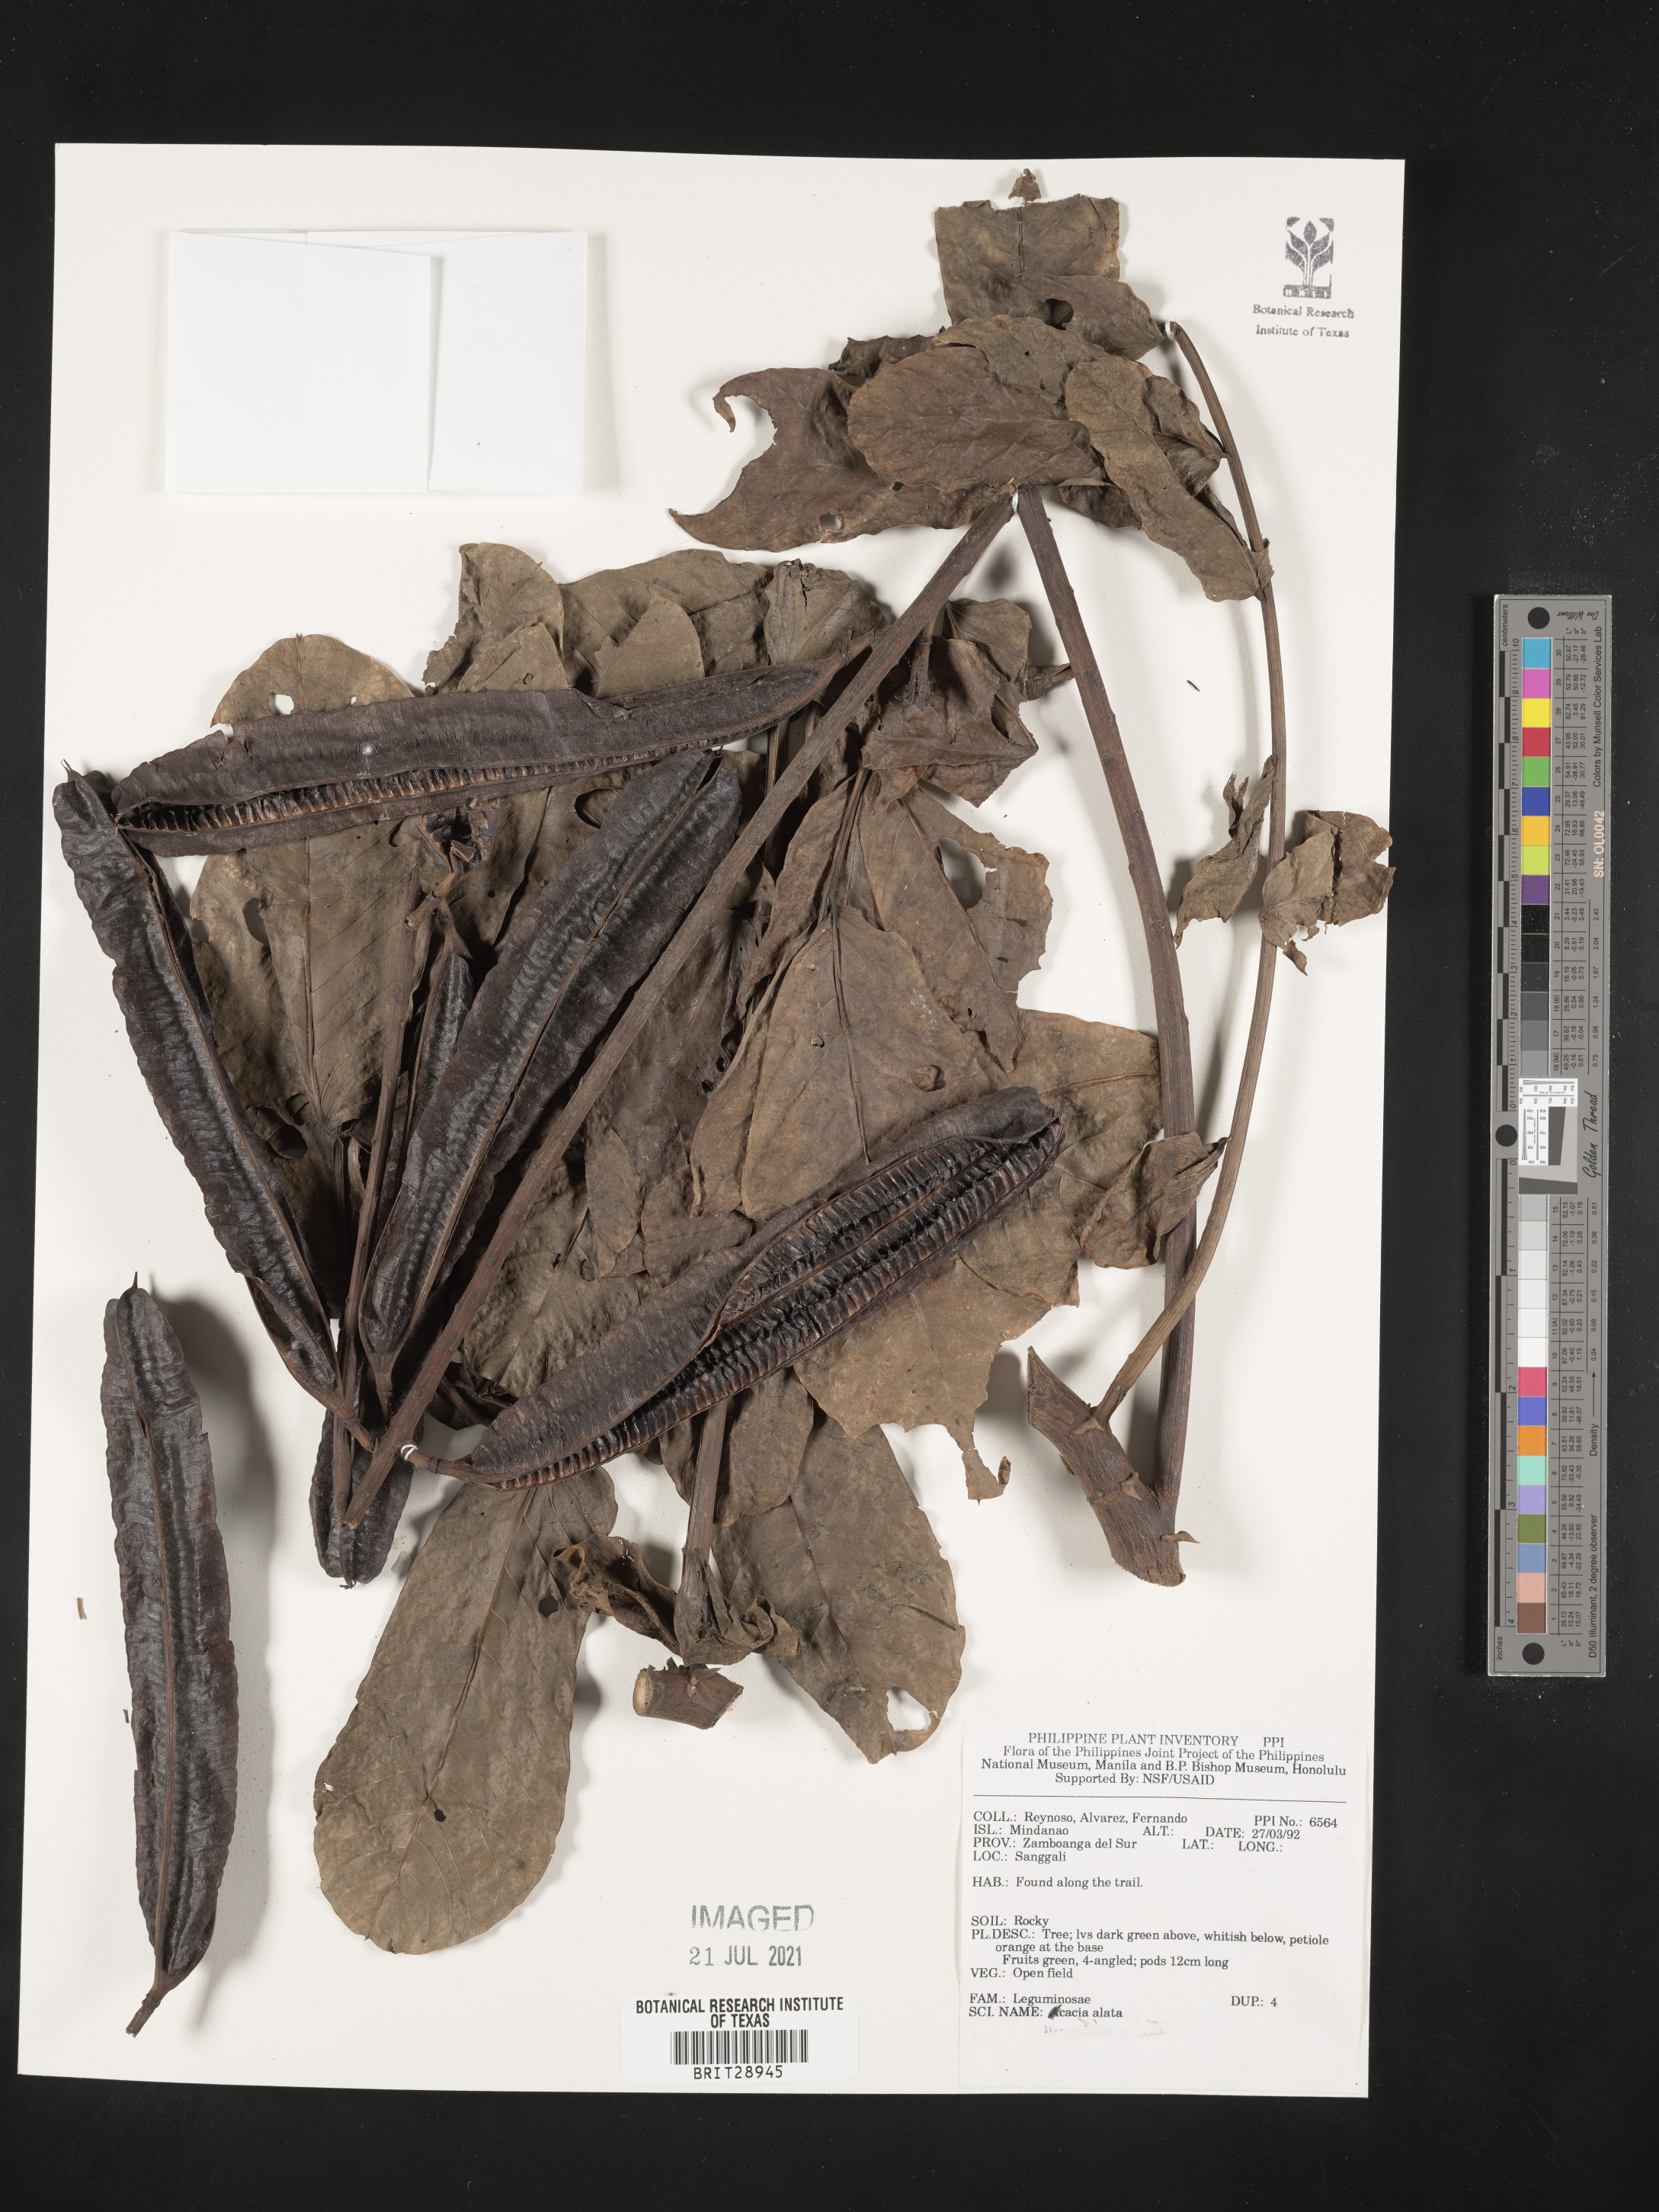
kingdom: Plantae
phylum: Tracheophyta
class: Magnoliopsida
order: Fabales
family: Fabaceae
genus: Acacia
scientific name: Acacia alata
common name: Winged wattle
